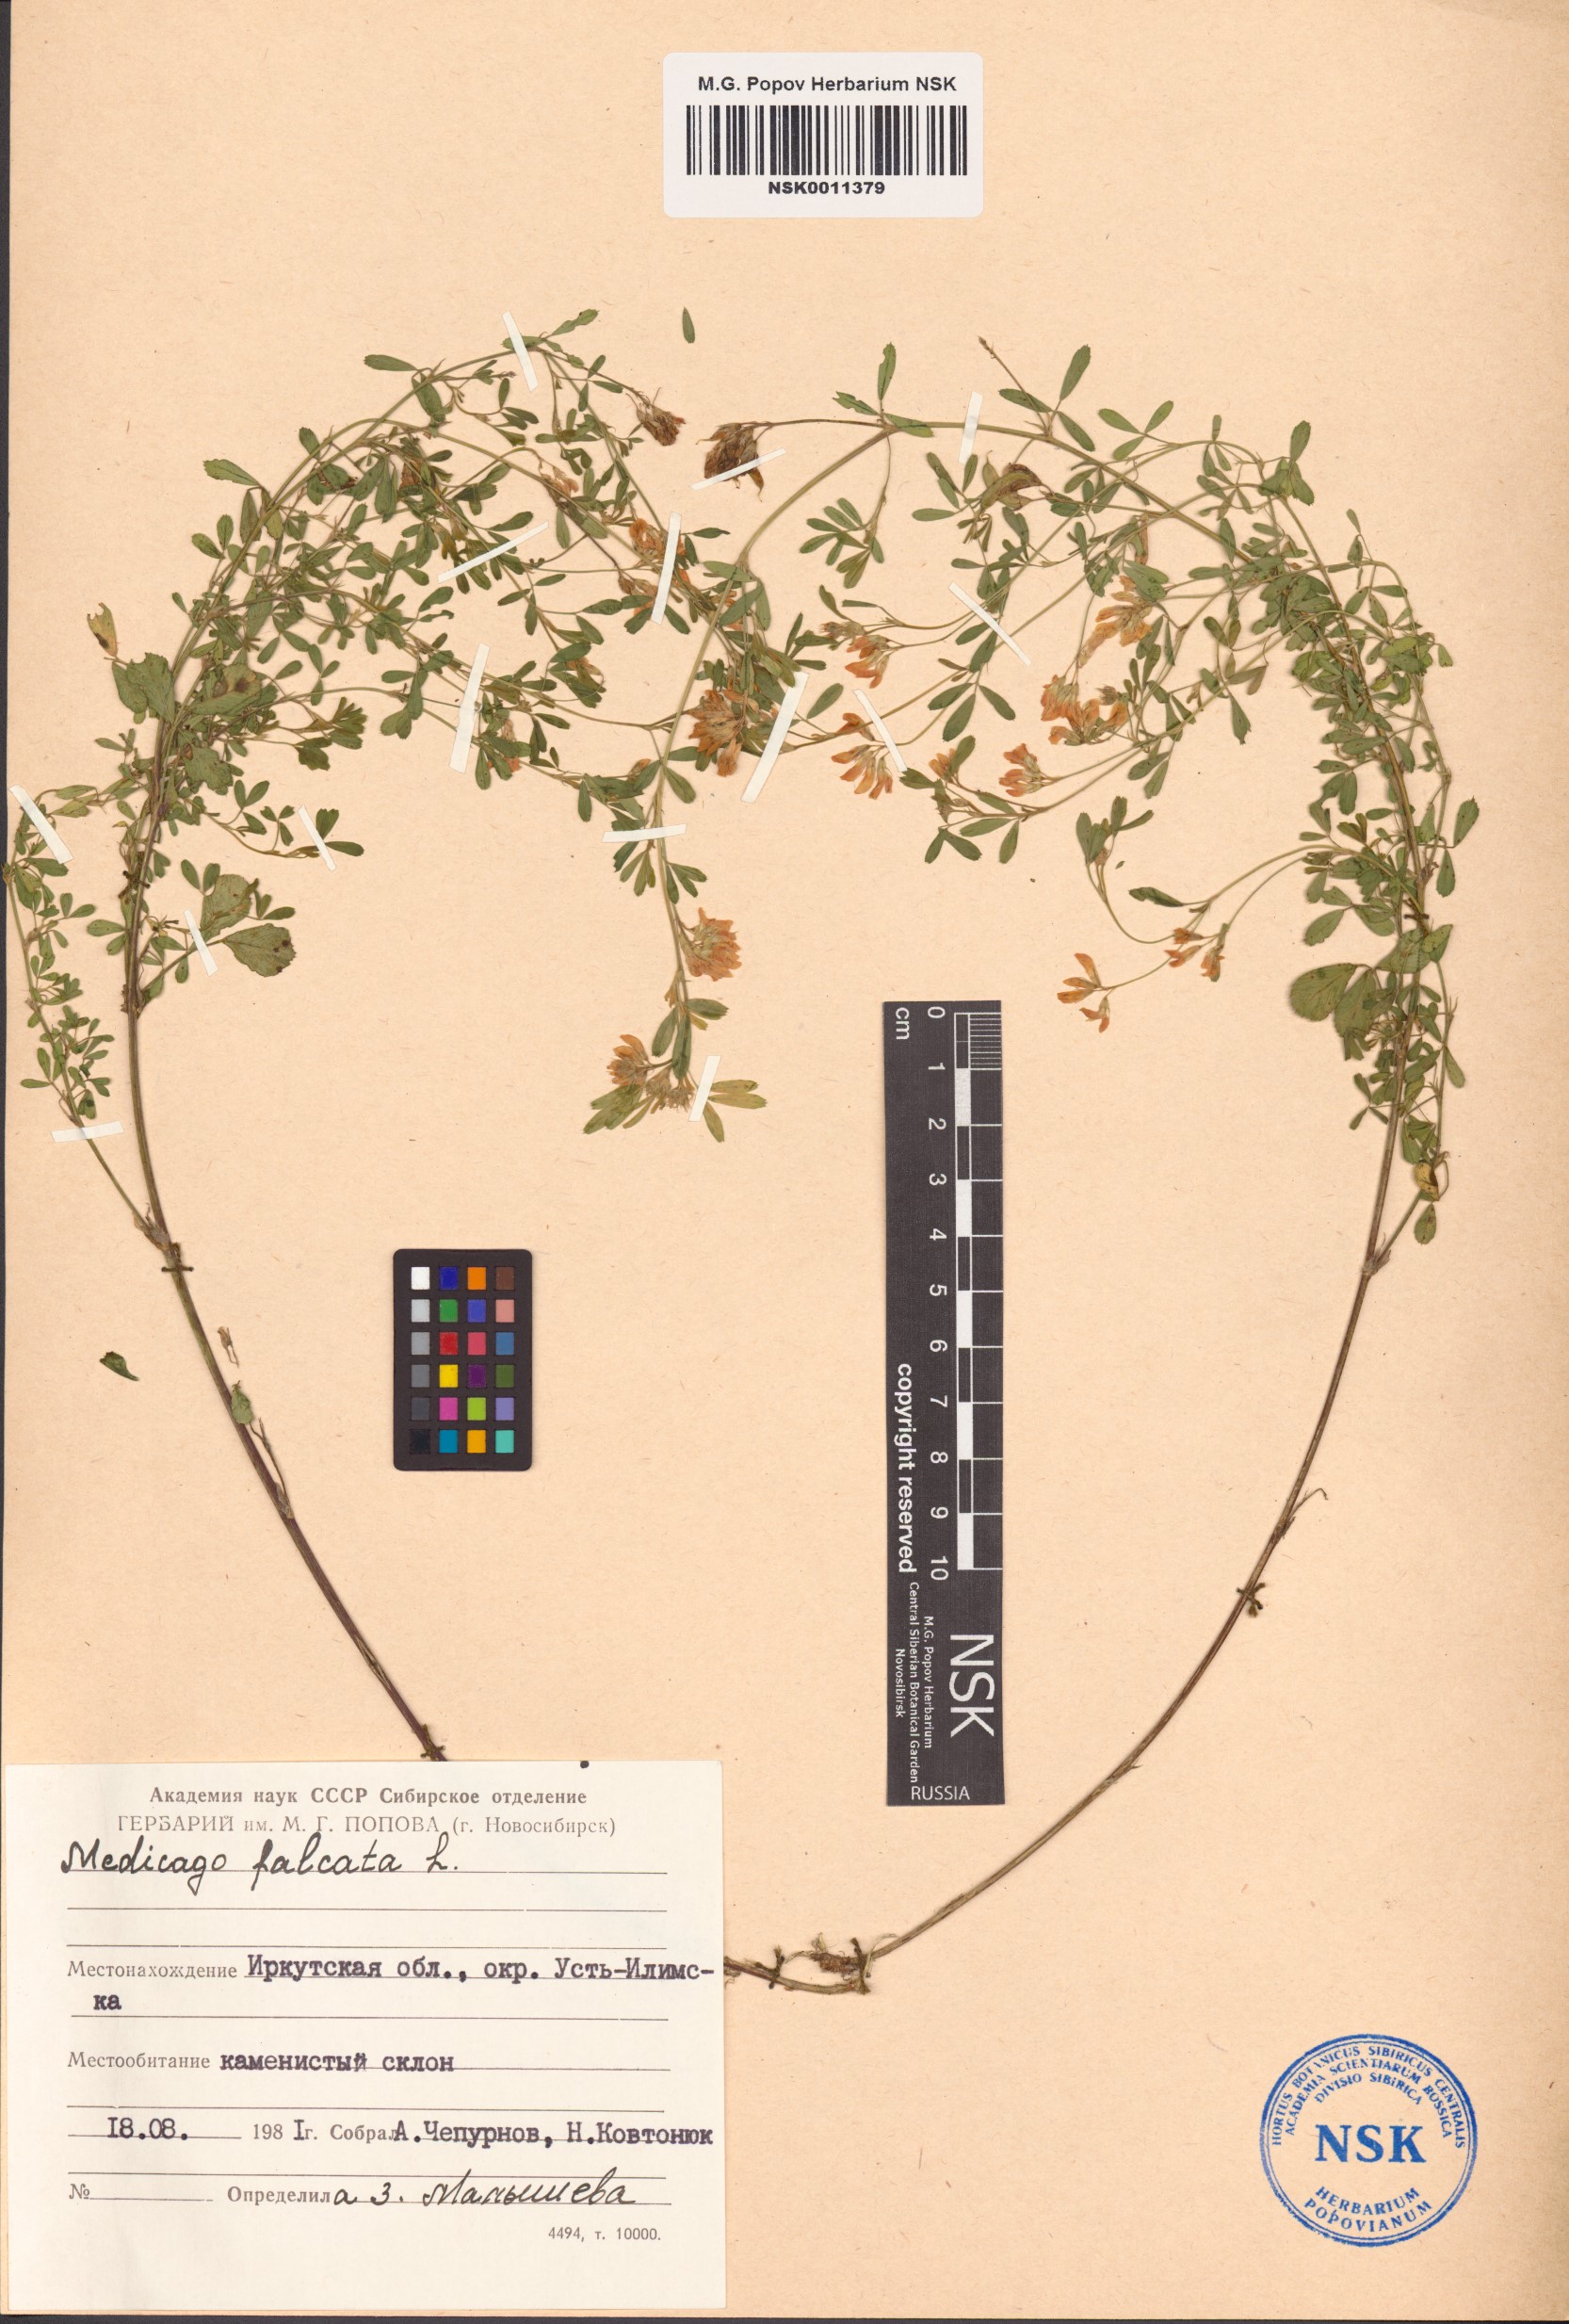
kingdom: Plantae
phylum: Tracheophyta
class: Magnoliopsida
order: Fabales
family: Fabaceae
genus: Medicago
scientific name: Medicago falcata
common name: Sickle medick
